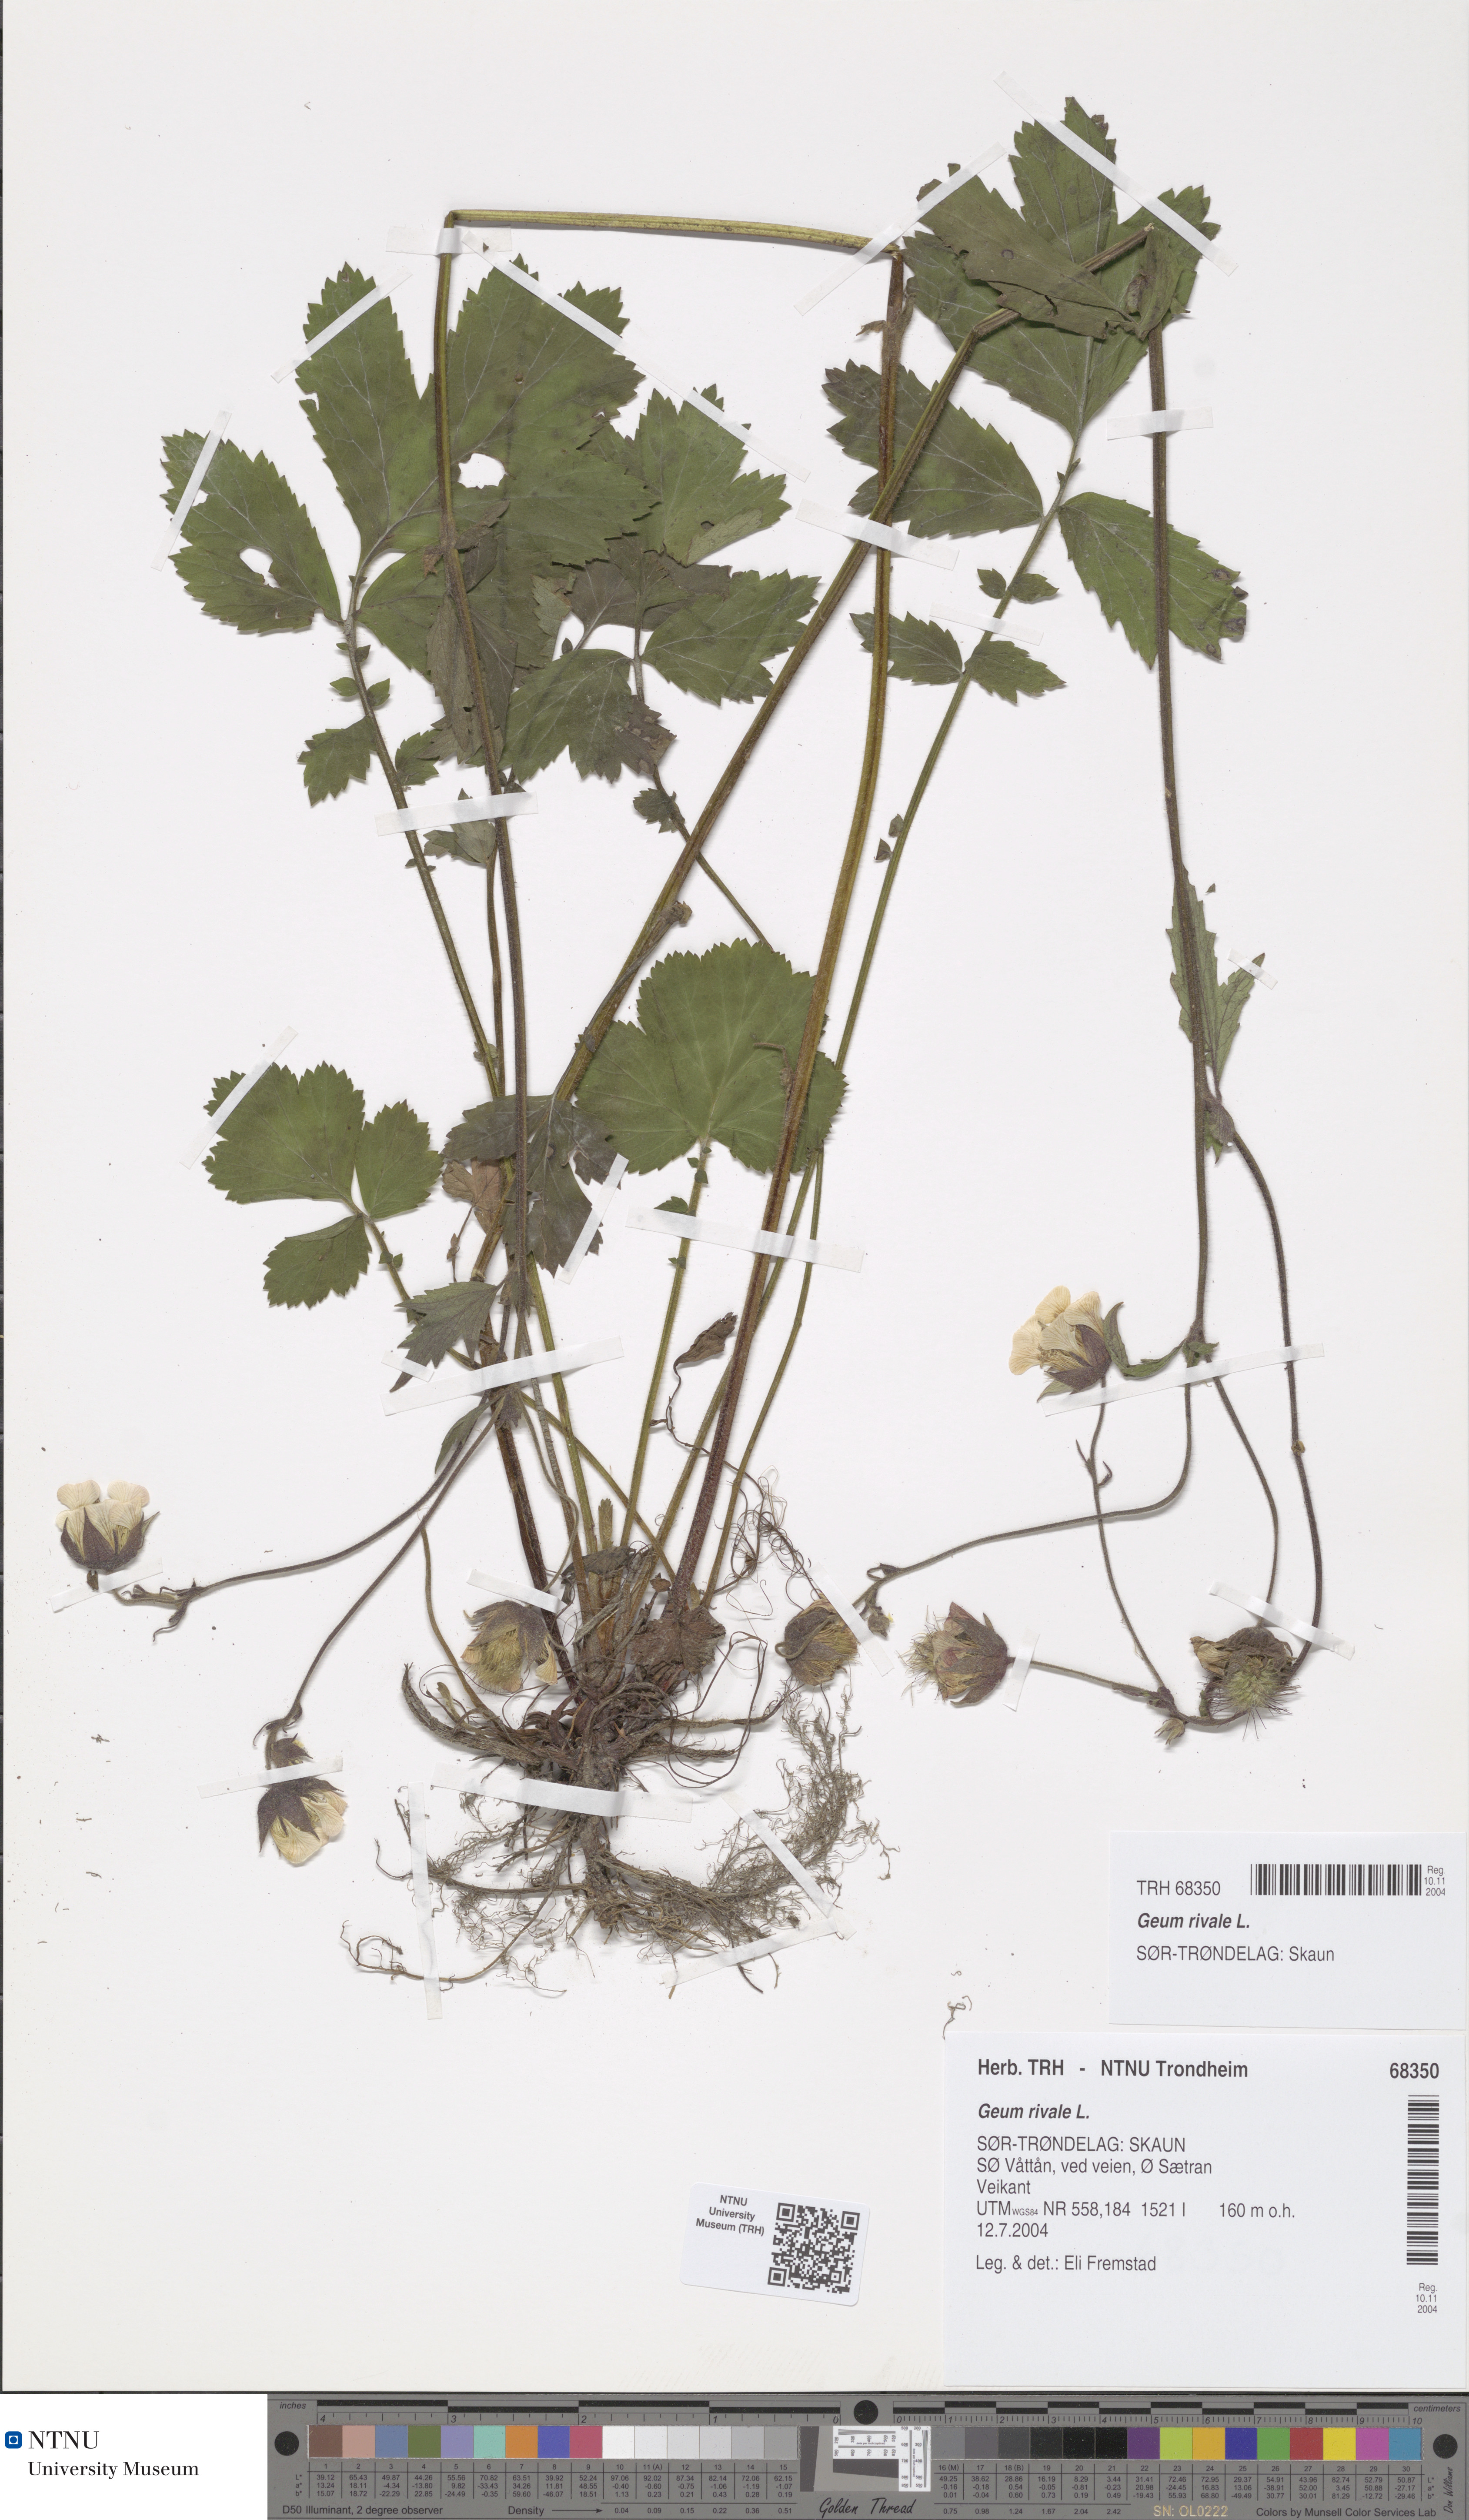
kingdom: Plantae
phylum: Tracheophyta
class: Magnoliopsida
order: Rosales
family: Rosaceae
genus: Geum
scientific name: Geum rivale
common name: Water avens
